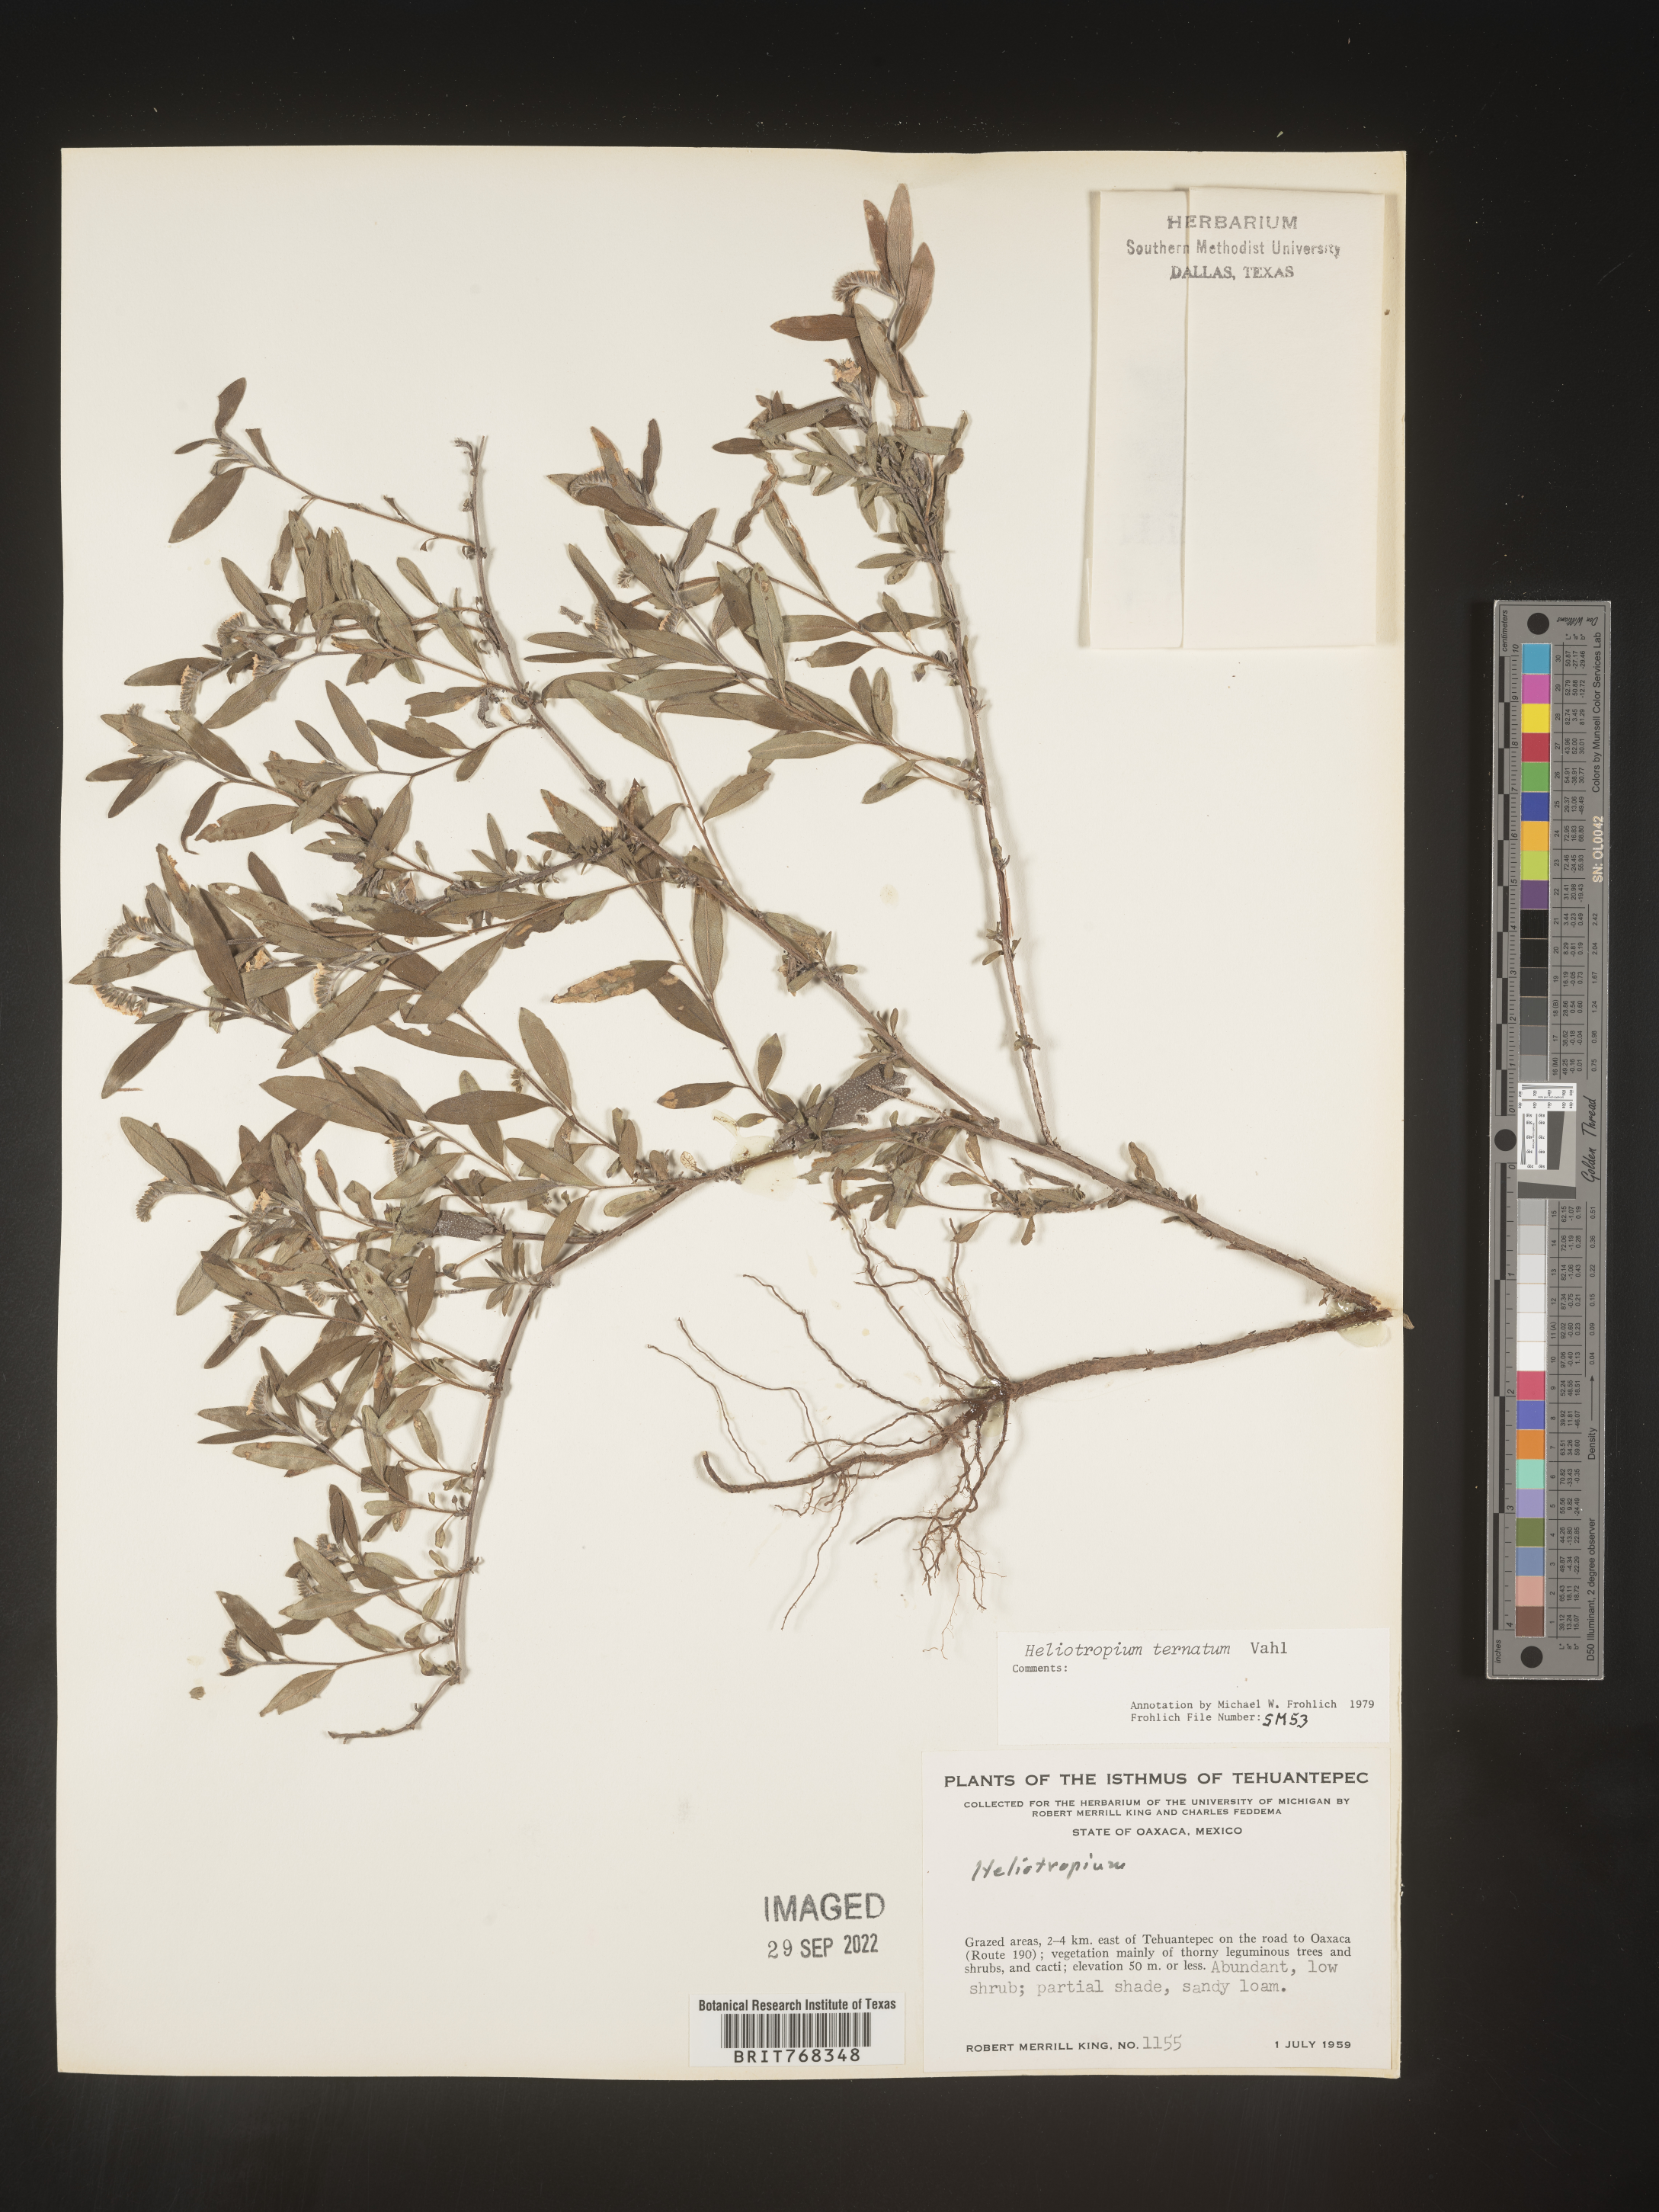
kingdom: Plantae
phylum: Tracheophyta
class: Magnoliopsida
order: Boraginales
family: Heliotropiaceae
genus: Heliotropium
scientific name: Heliotropium
